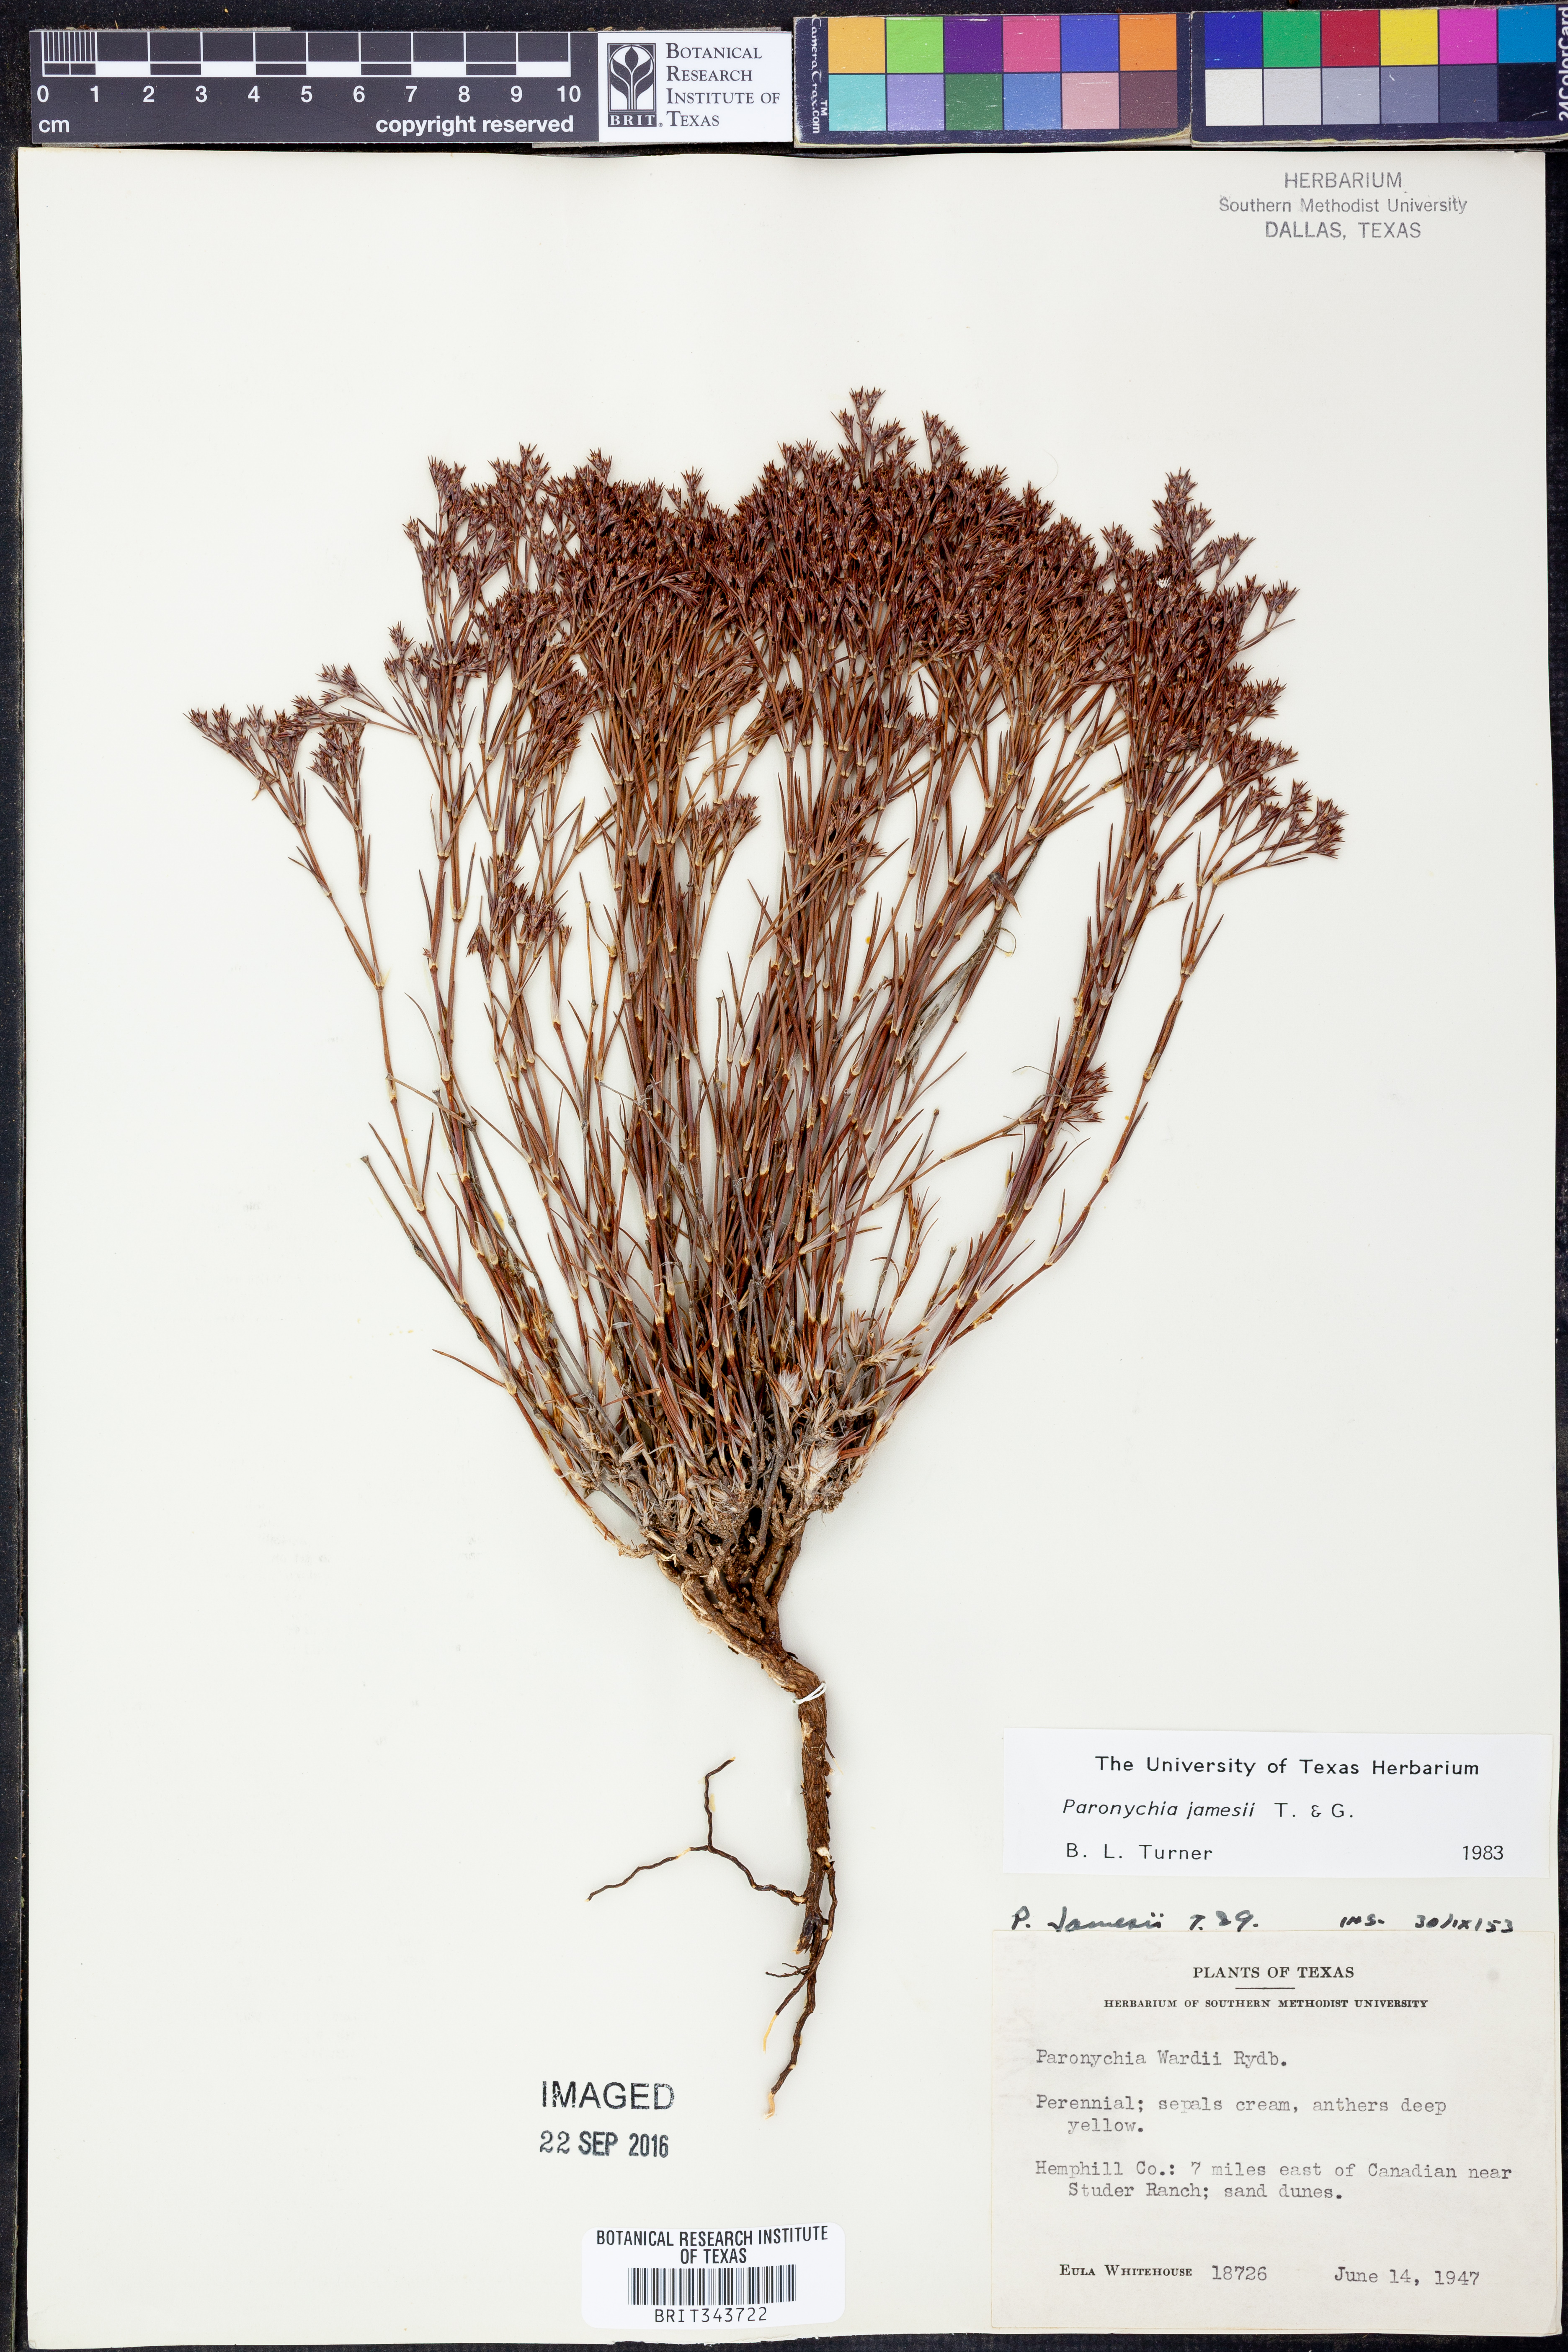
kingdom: Plantae
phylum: Tracheophyta
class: Magnoliopsida
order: Caryophyllales
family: Caryophyllaceae
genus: Paronychia
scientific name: Paronychia jamesii
